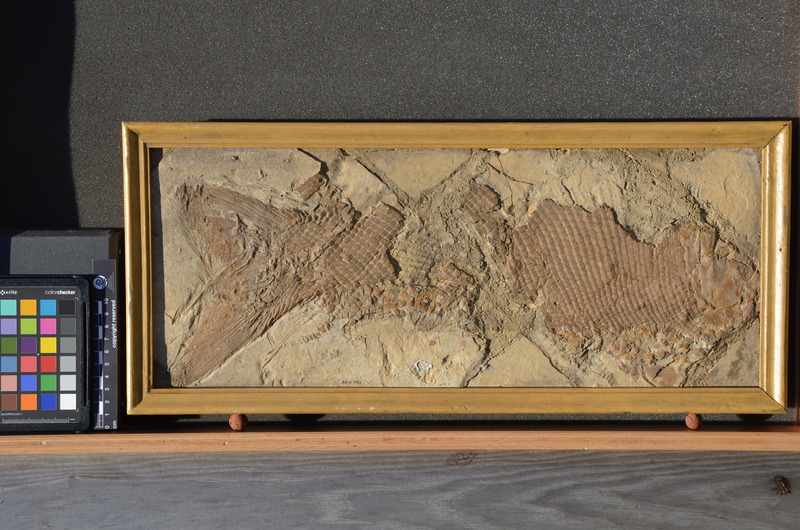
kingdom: Animalia
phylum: Chordata
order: Lepisosteiformes
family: Lepidotidae
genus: Lepidotes
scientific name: Lepidotes intermedius
